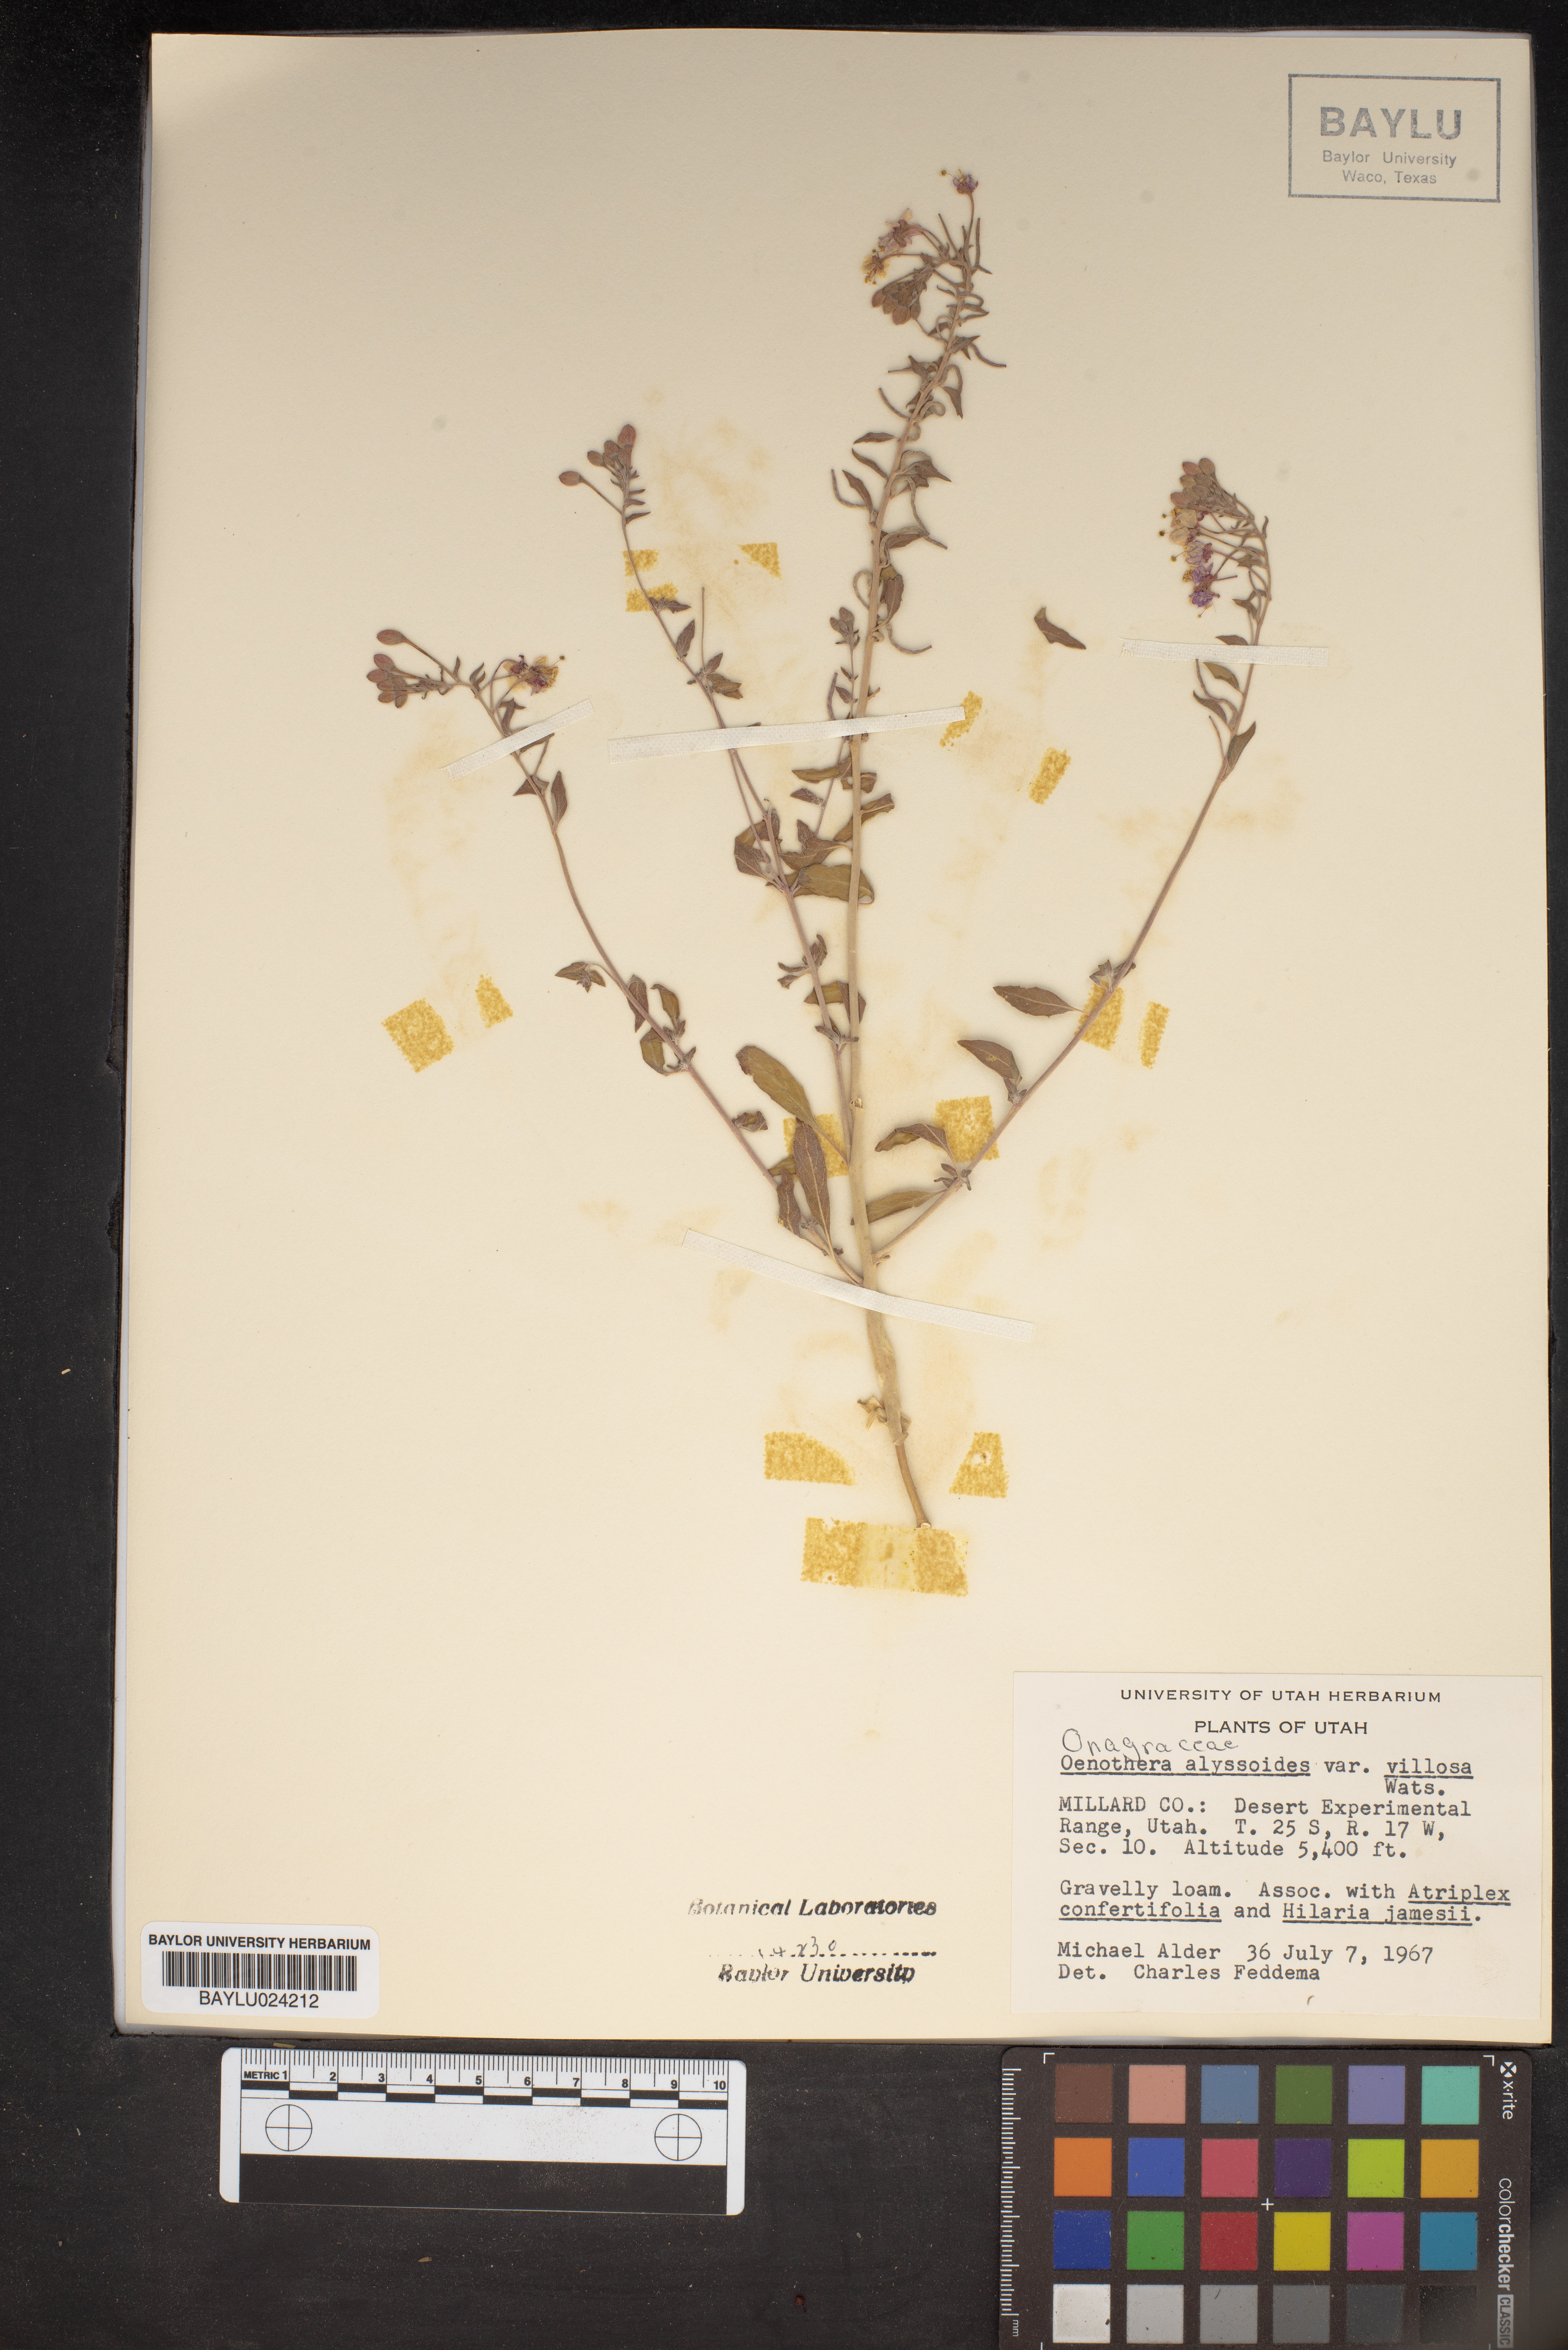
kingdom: Plantae
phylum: Tracheophyta
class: Magnoliopsida
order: Myrtales
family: Onagraceae
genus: Eremothera
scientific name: Eremothera boothii
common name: Booth's evening primrose
